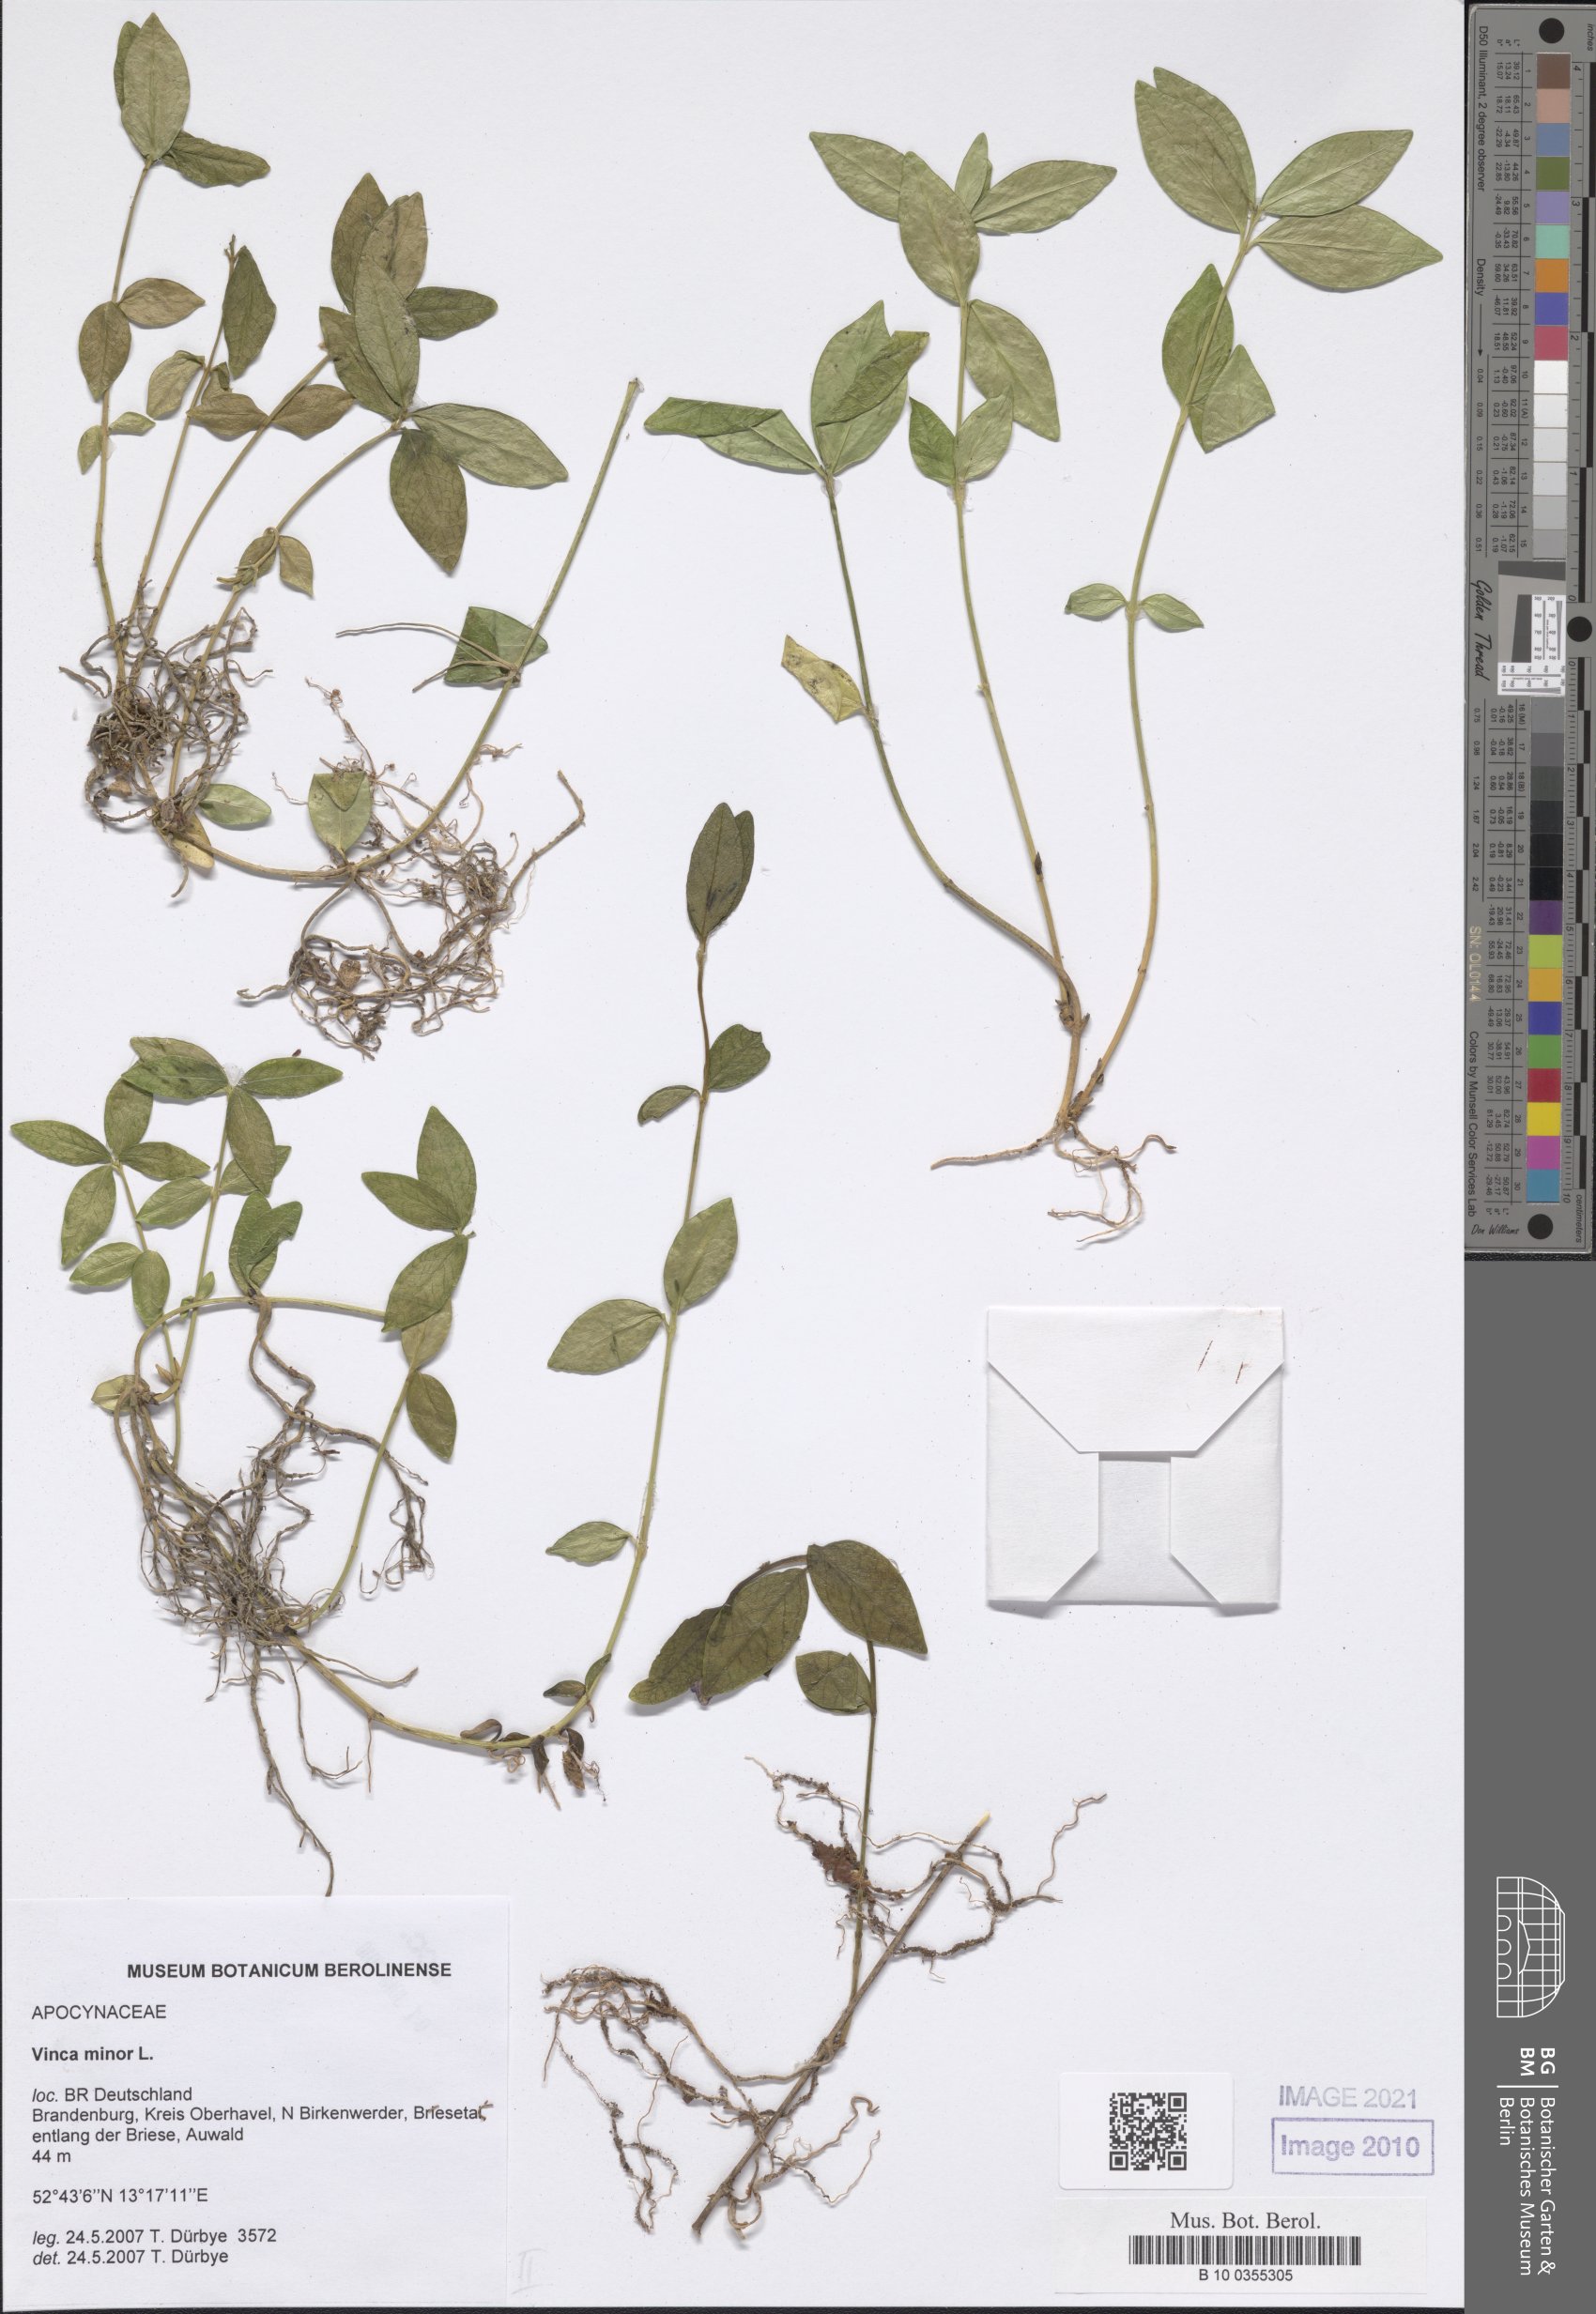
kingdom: Plantae
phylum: Tracheophyta
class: Magnoliopsida
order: Gentianales
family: Apocynaceae
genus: Vinca
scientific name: Vinca minor
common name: Lesser periwinkle
